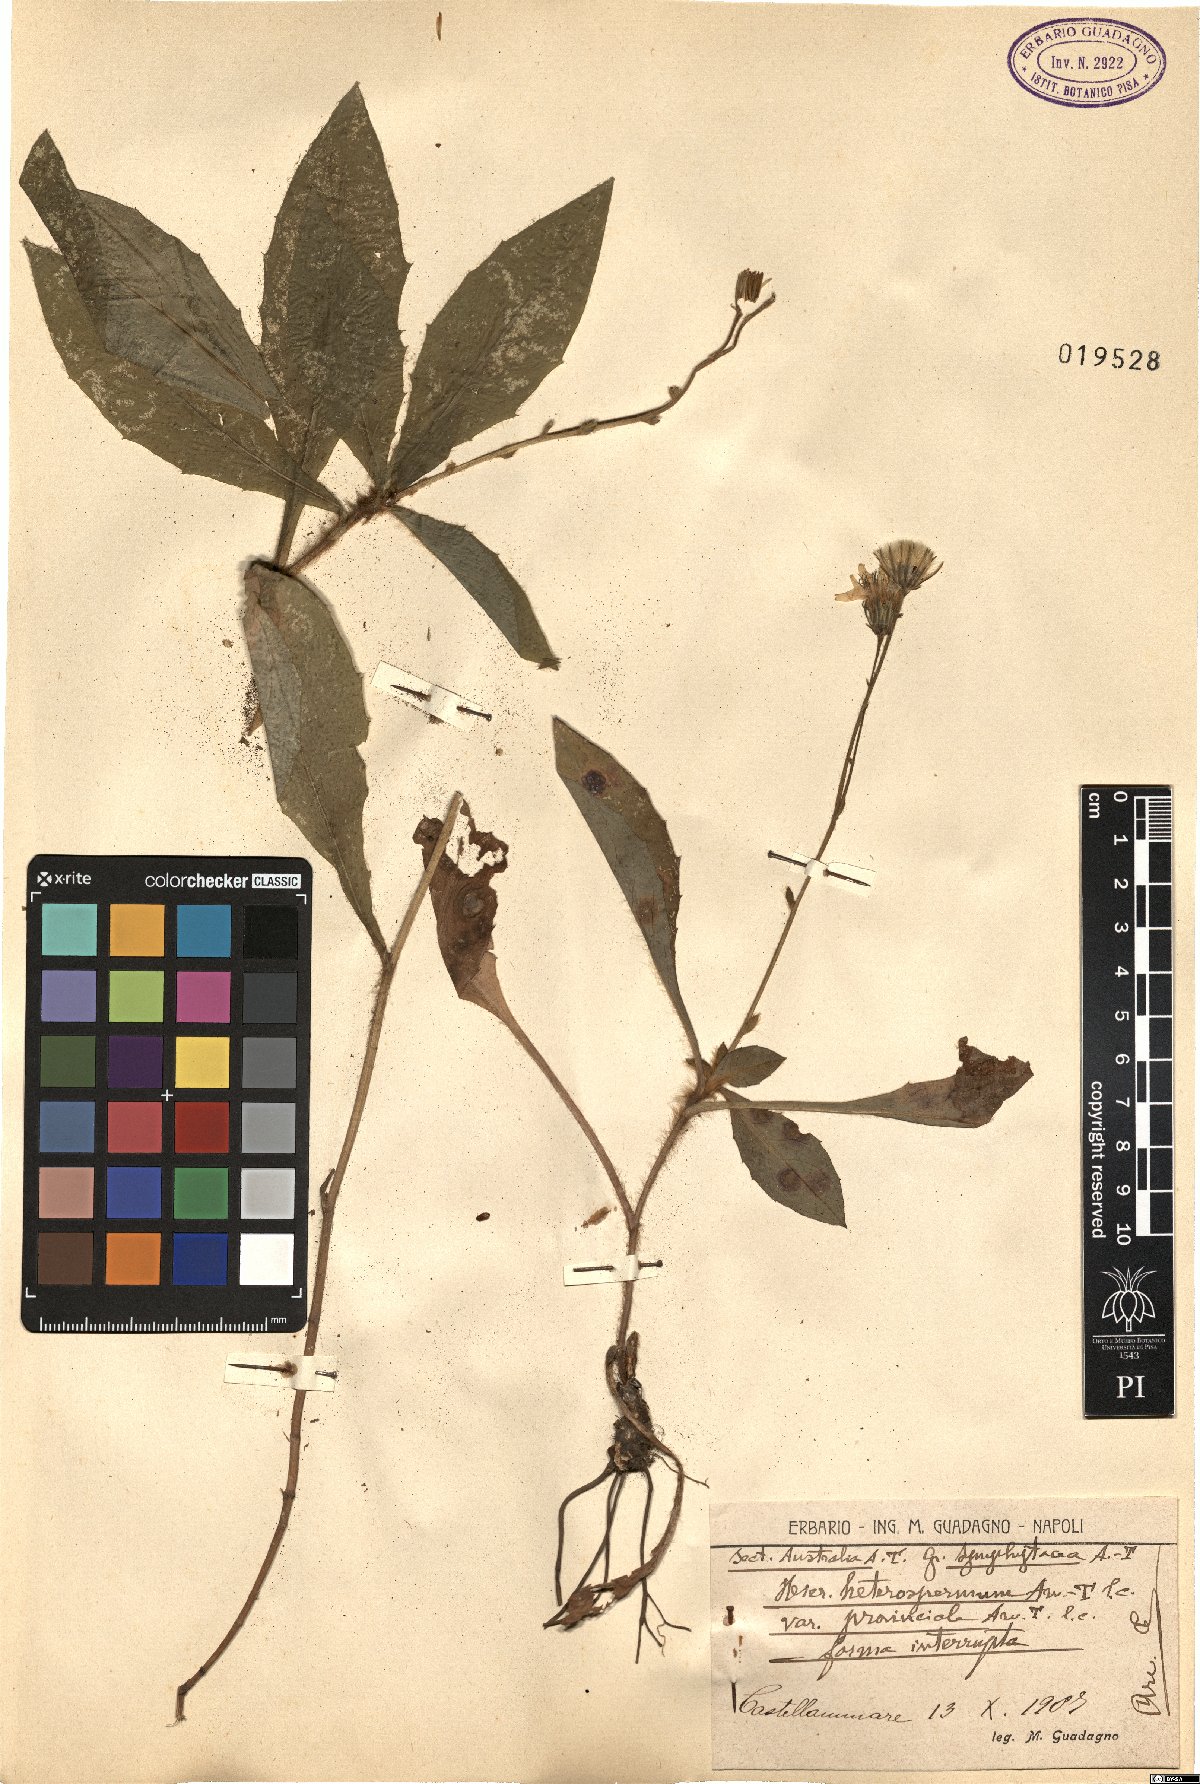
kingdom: Plantae
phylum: Tracheophyta
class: Magnoliopsida
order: Asterales
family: Asteraceae
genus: Hieracium
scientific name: Hieracium racemosum
